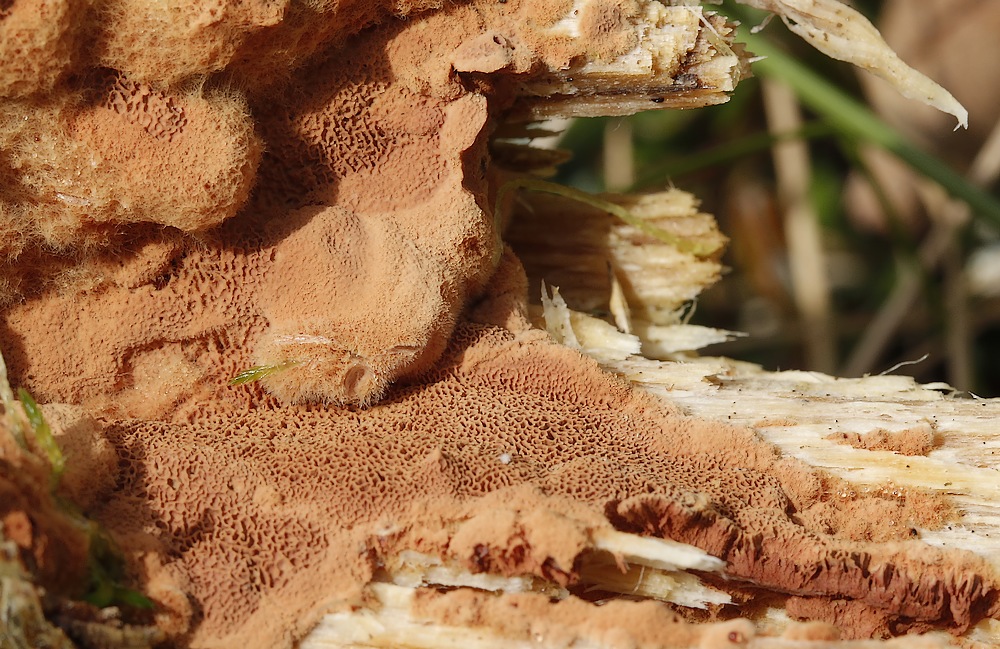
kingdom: Fungi
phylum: Basidiomycota
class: Agaricomycetes
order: Polyporales
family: Phanerochaetaceae
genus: Hapalopilus
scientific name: Hapalopilus rutilans
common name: rødlig okkerporesvamp
